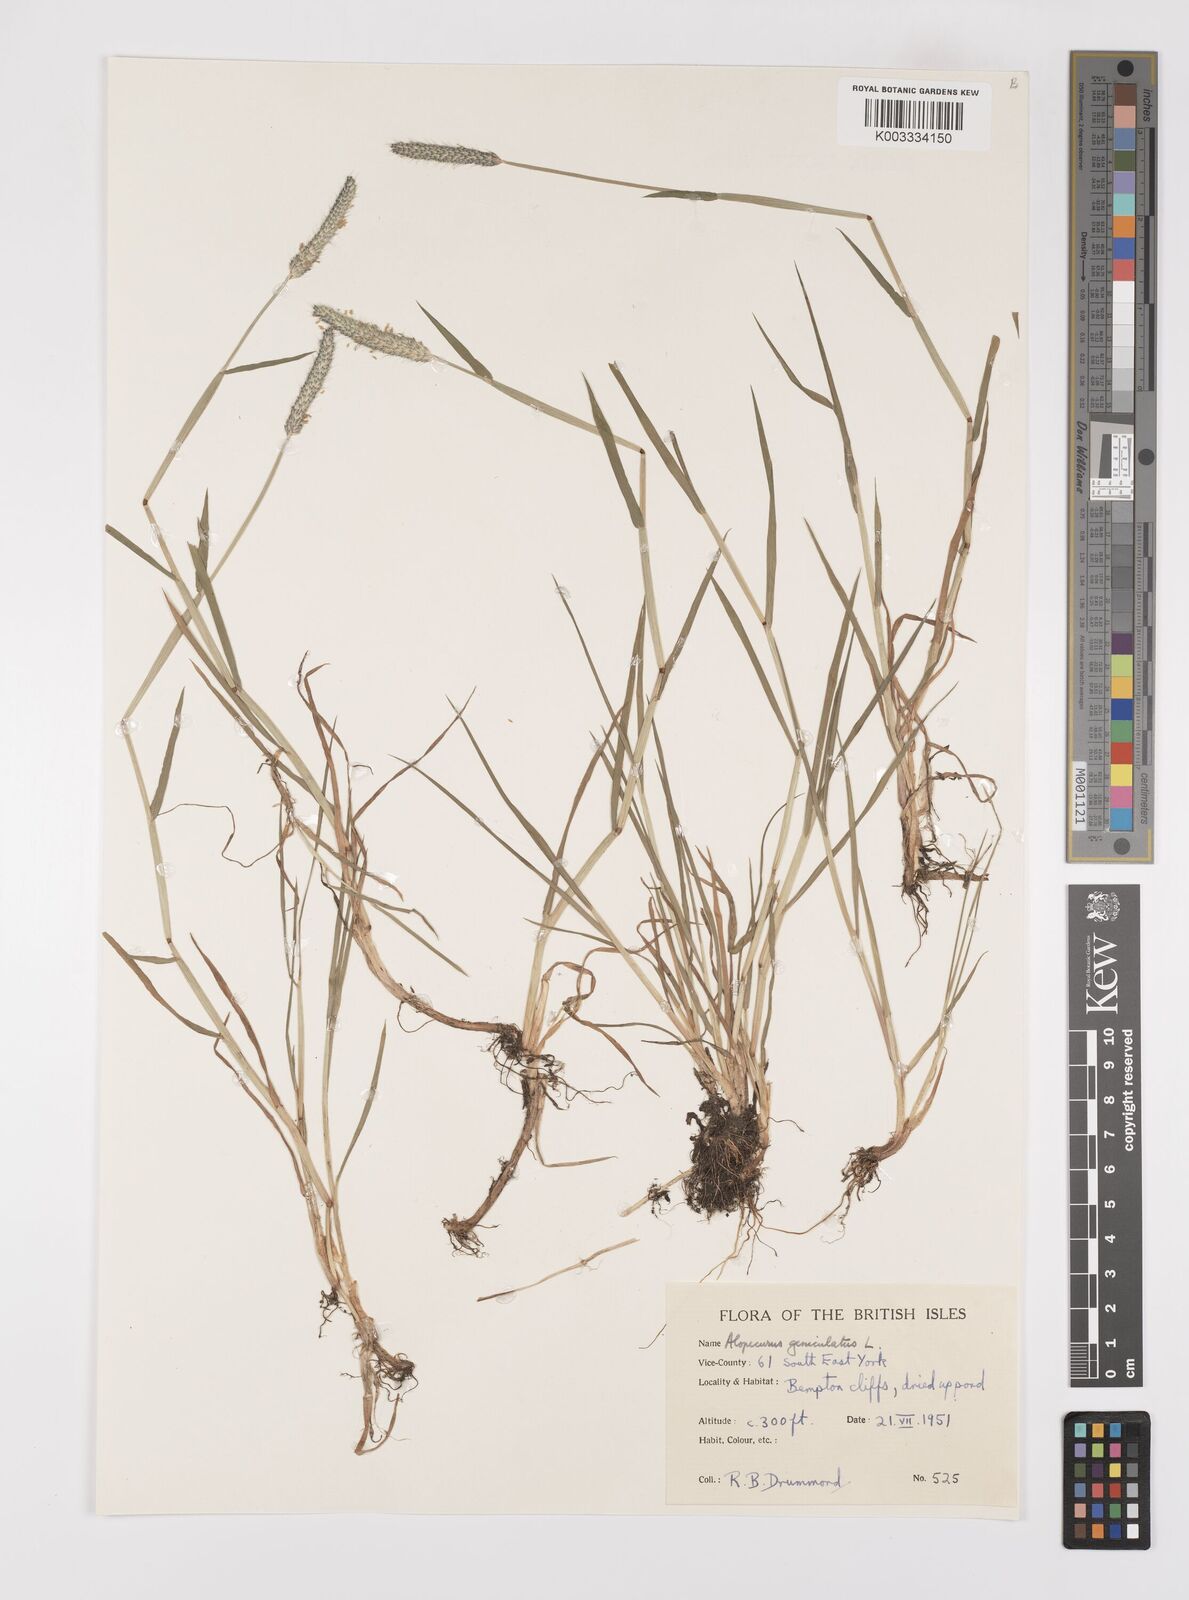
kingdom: Plantae
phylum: Tracheophyta
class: Liliopsida
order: Poales
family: Poaceae
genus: Alopecurus
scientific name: Alopecurus geniculatus
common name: Water foxtail
